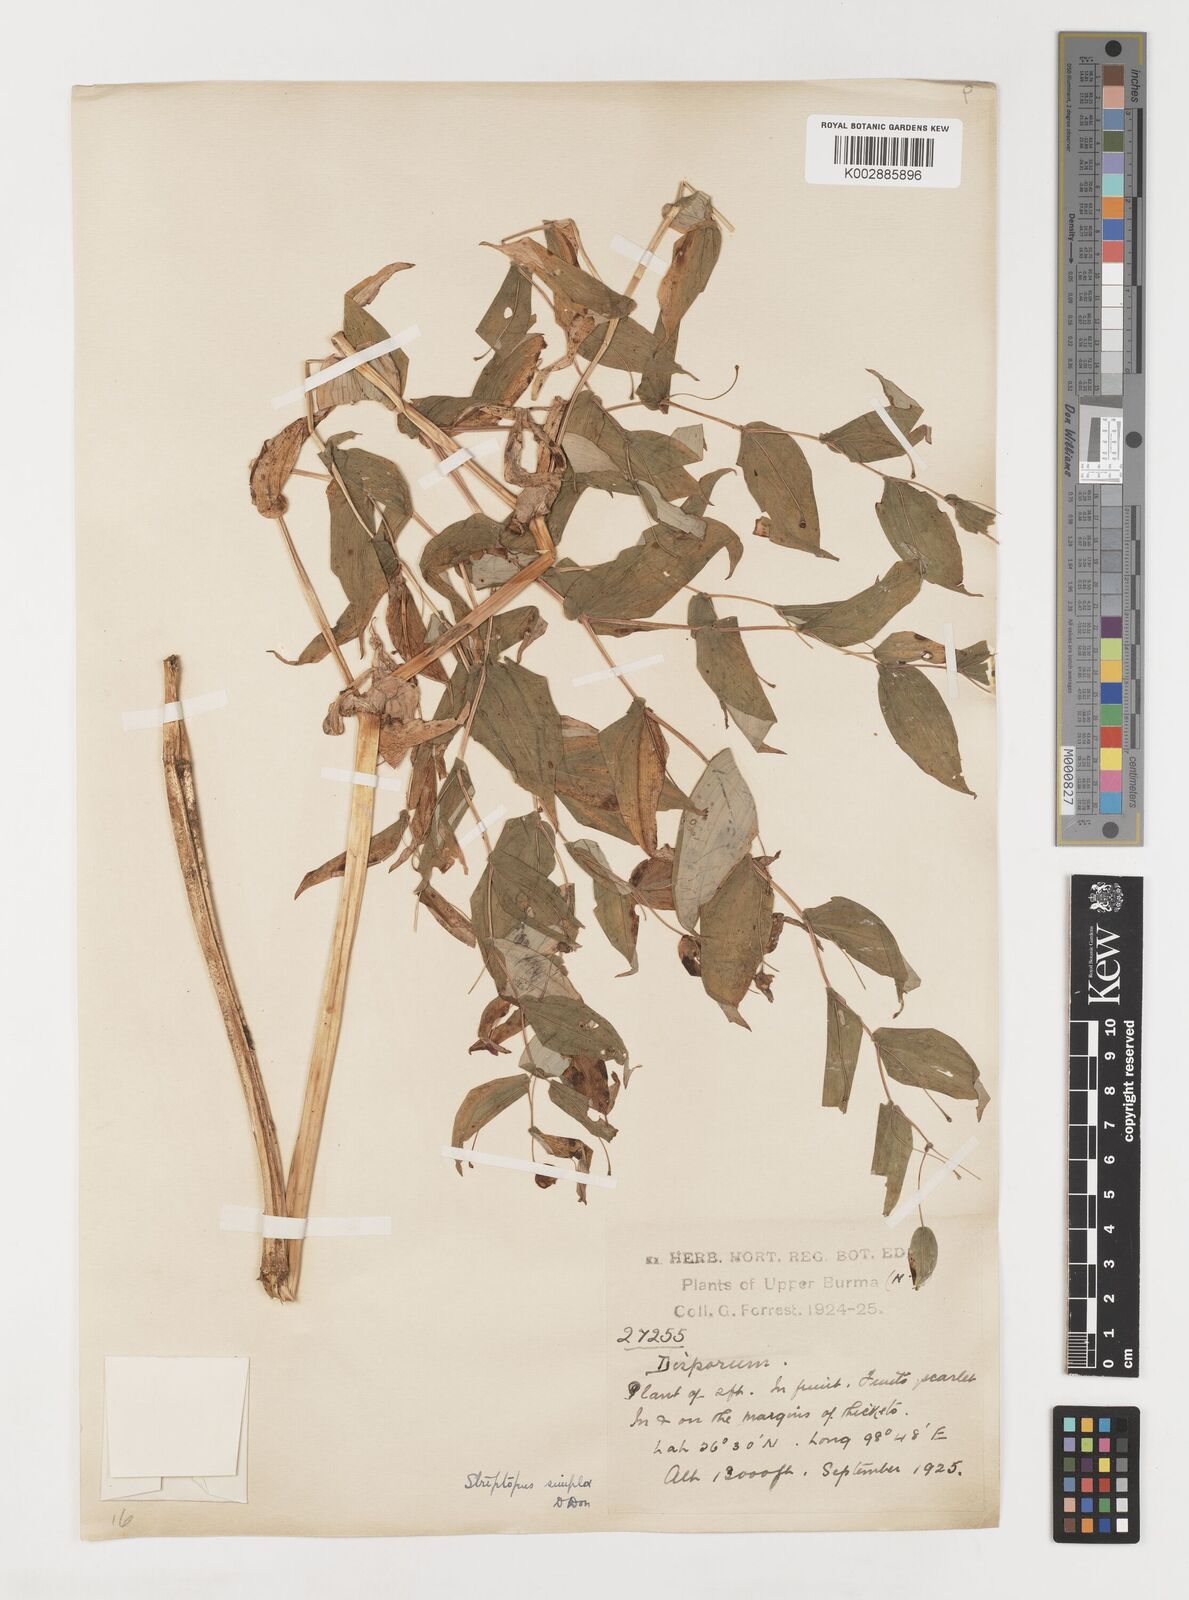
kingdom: Plantae
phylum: Tracheophyta
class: Liliopsida
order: Liliales
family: Liliaceae
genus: Streptopus
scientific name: Streptopus simplex
